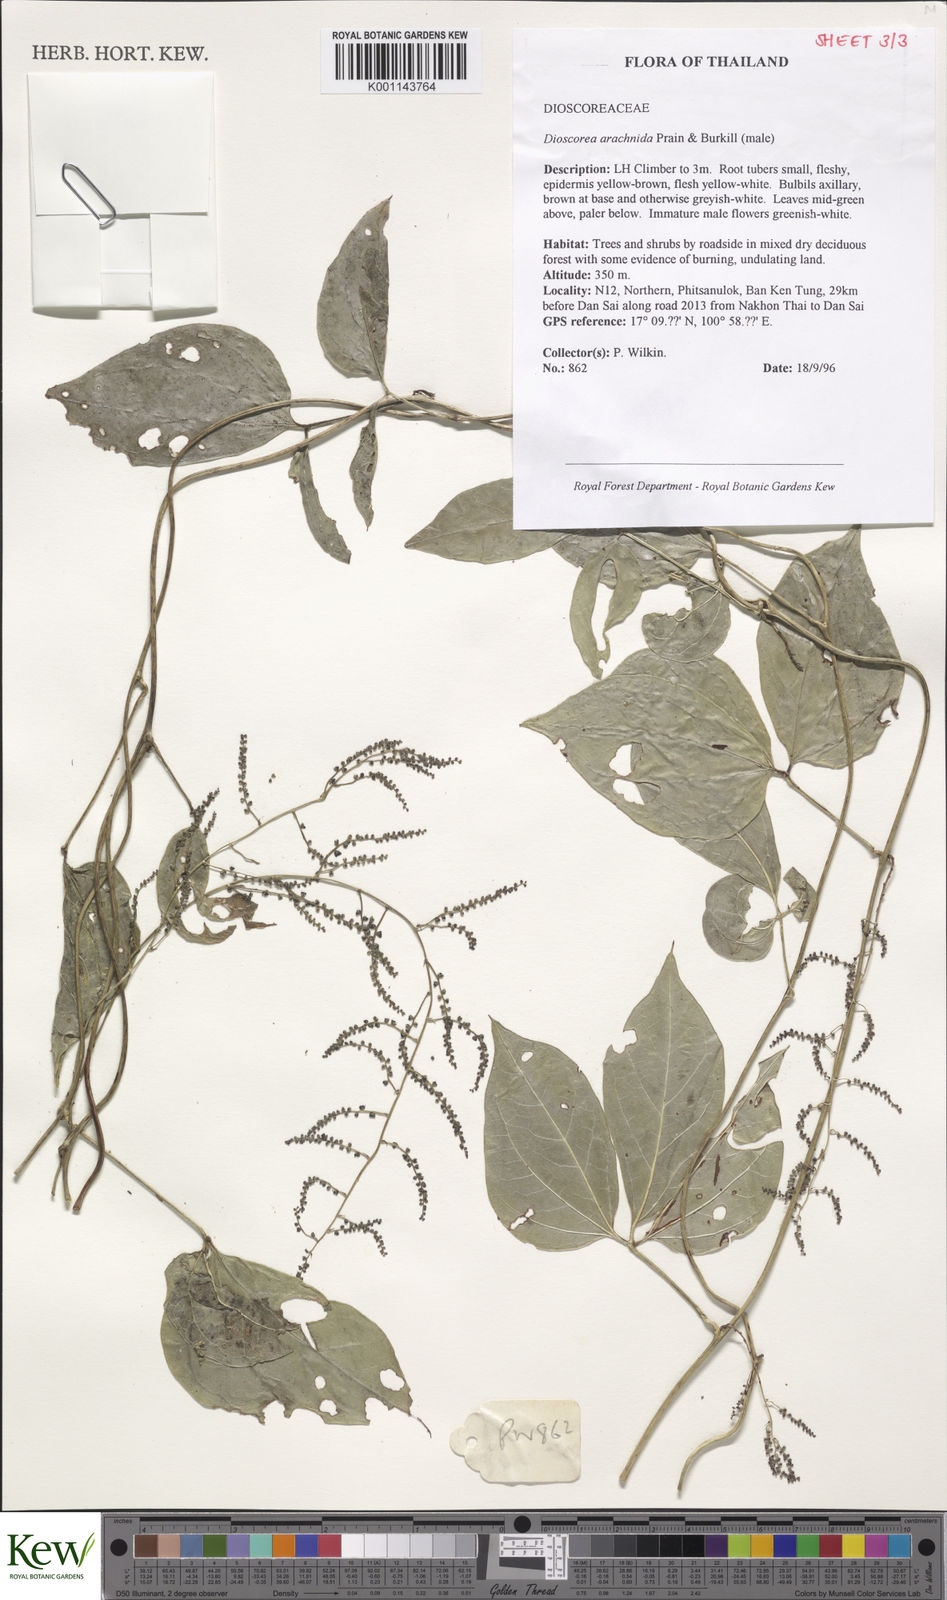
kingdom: Plantae
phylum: Tracheophyta
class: Liliopsida
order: Dioscoreales
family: Dioscoreaceae
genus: Dioscorea
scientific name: Dioscorea arachidna
